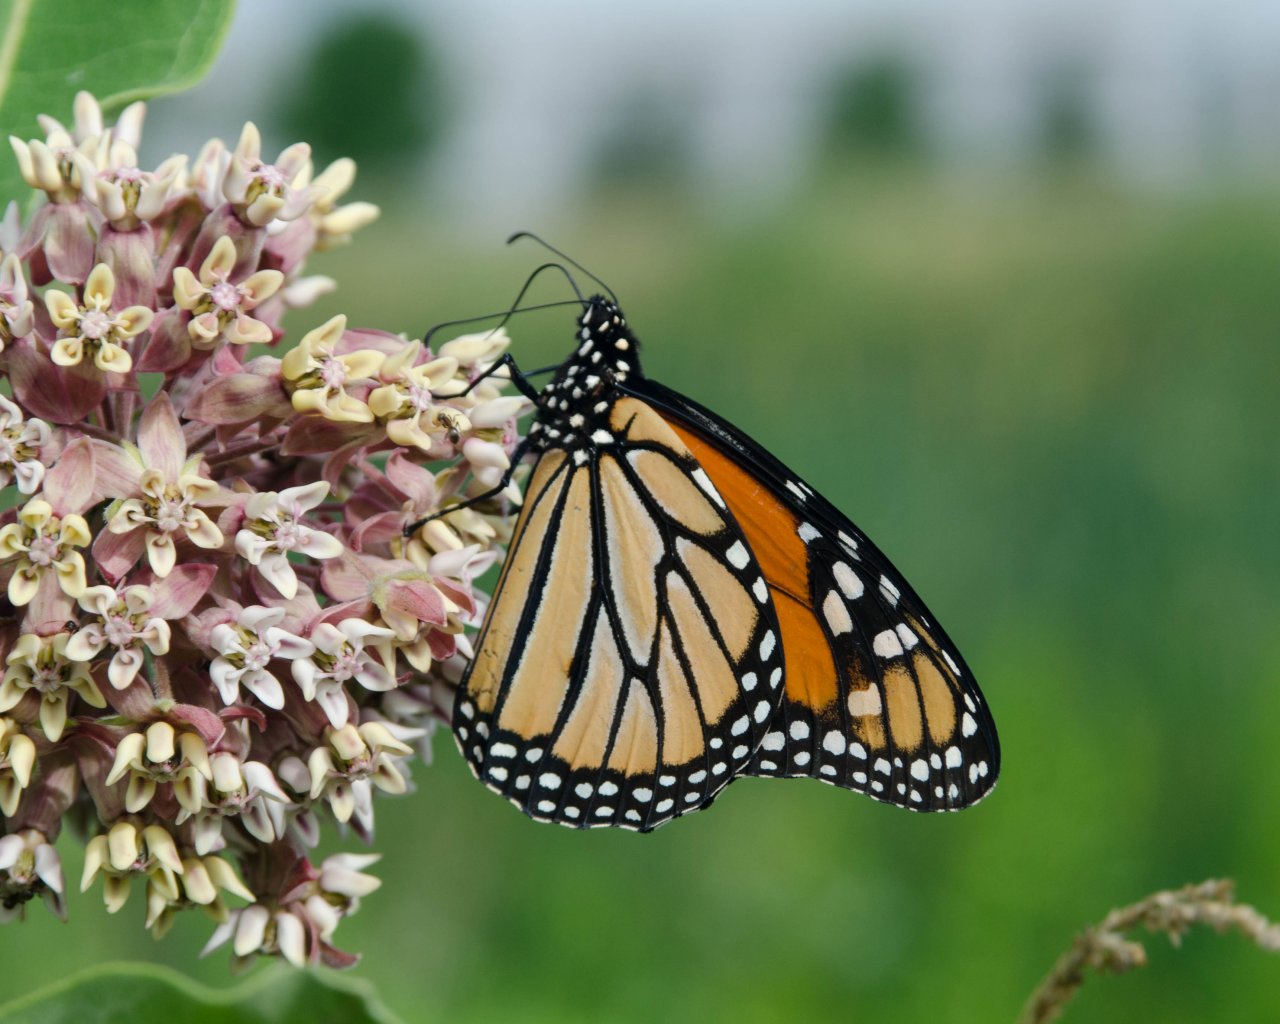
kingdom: Animalia
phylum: Arthropoda
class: Insecta
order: Lepidoptera
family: Nymphalidae
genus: Danaus
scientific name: Danaus plexippus
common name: Monarch
